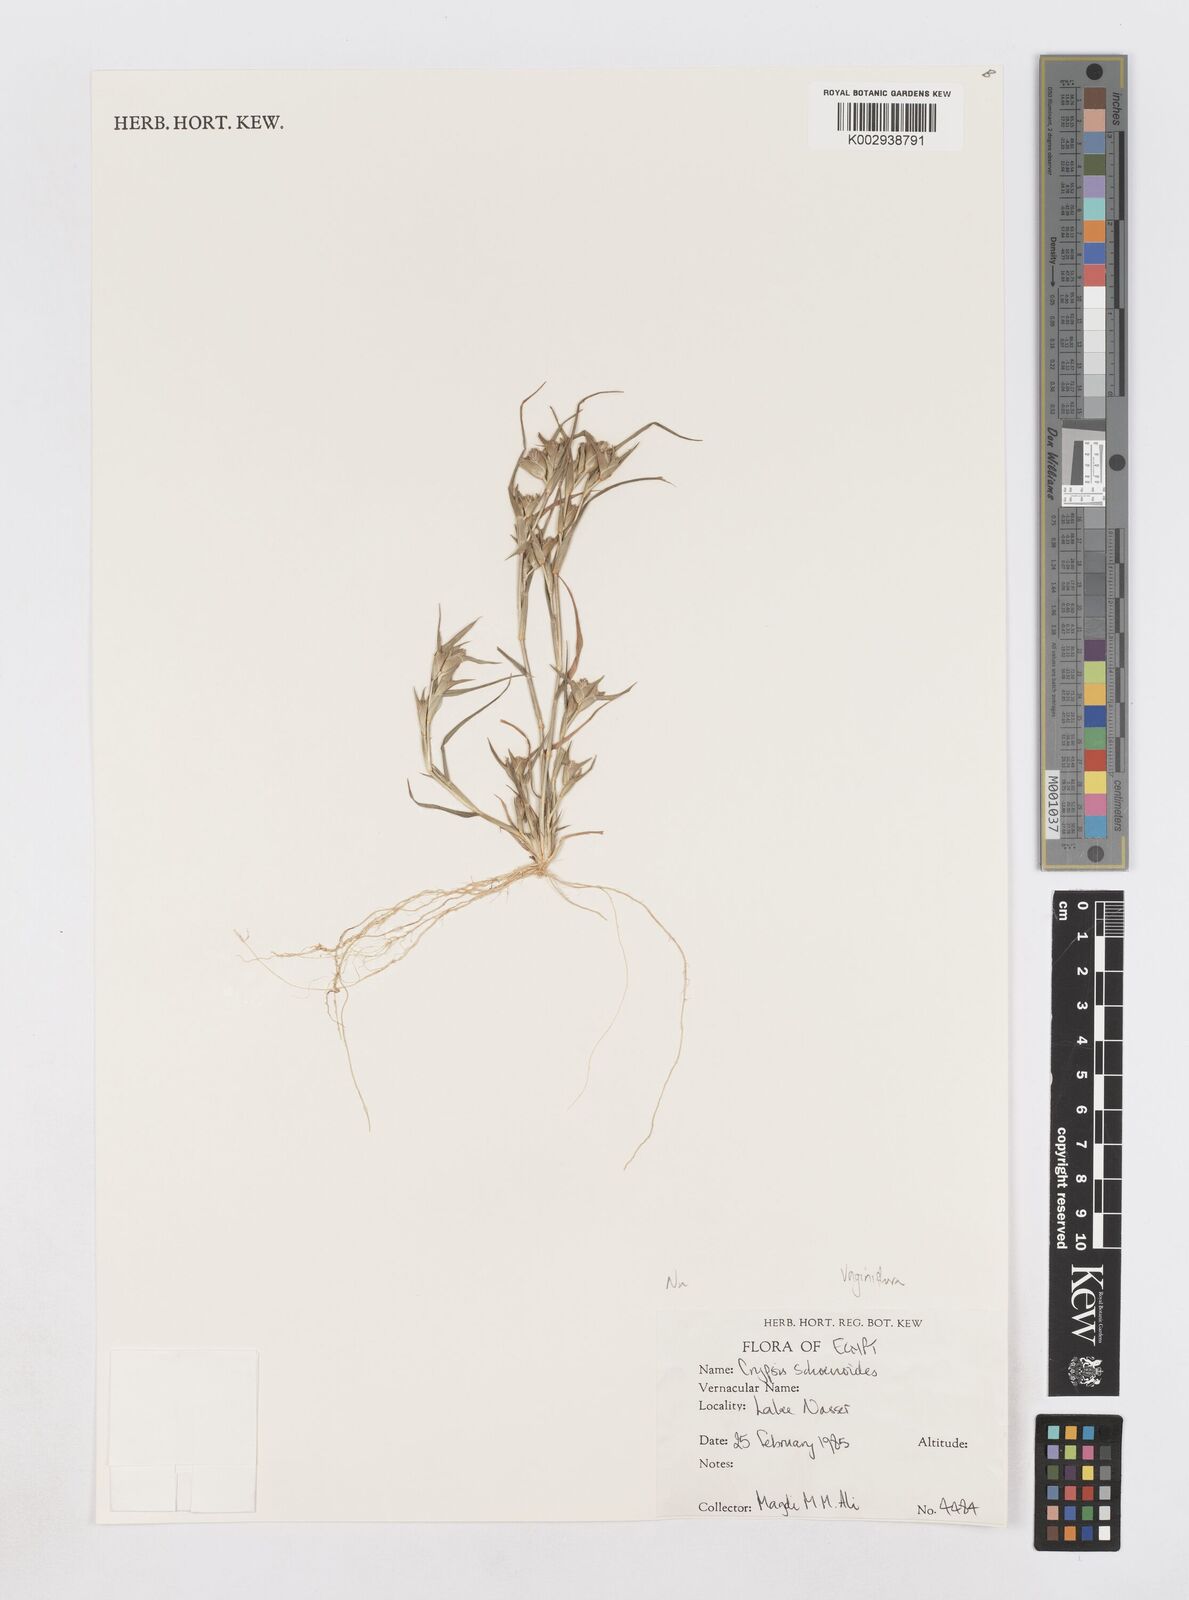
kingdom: Plantae
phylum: Tracheophyta
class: Liliopsida
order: Poales
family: Poaceae
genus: Sporobolus
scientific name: Sporobolus niliacus
